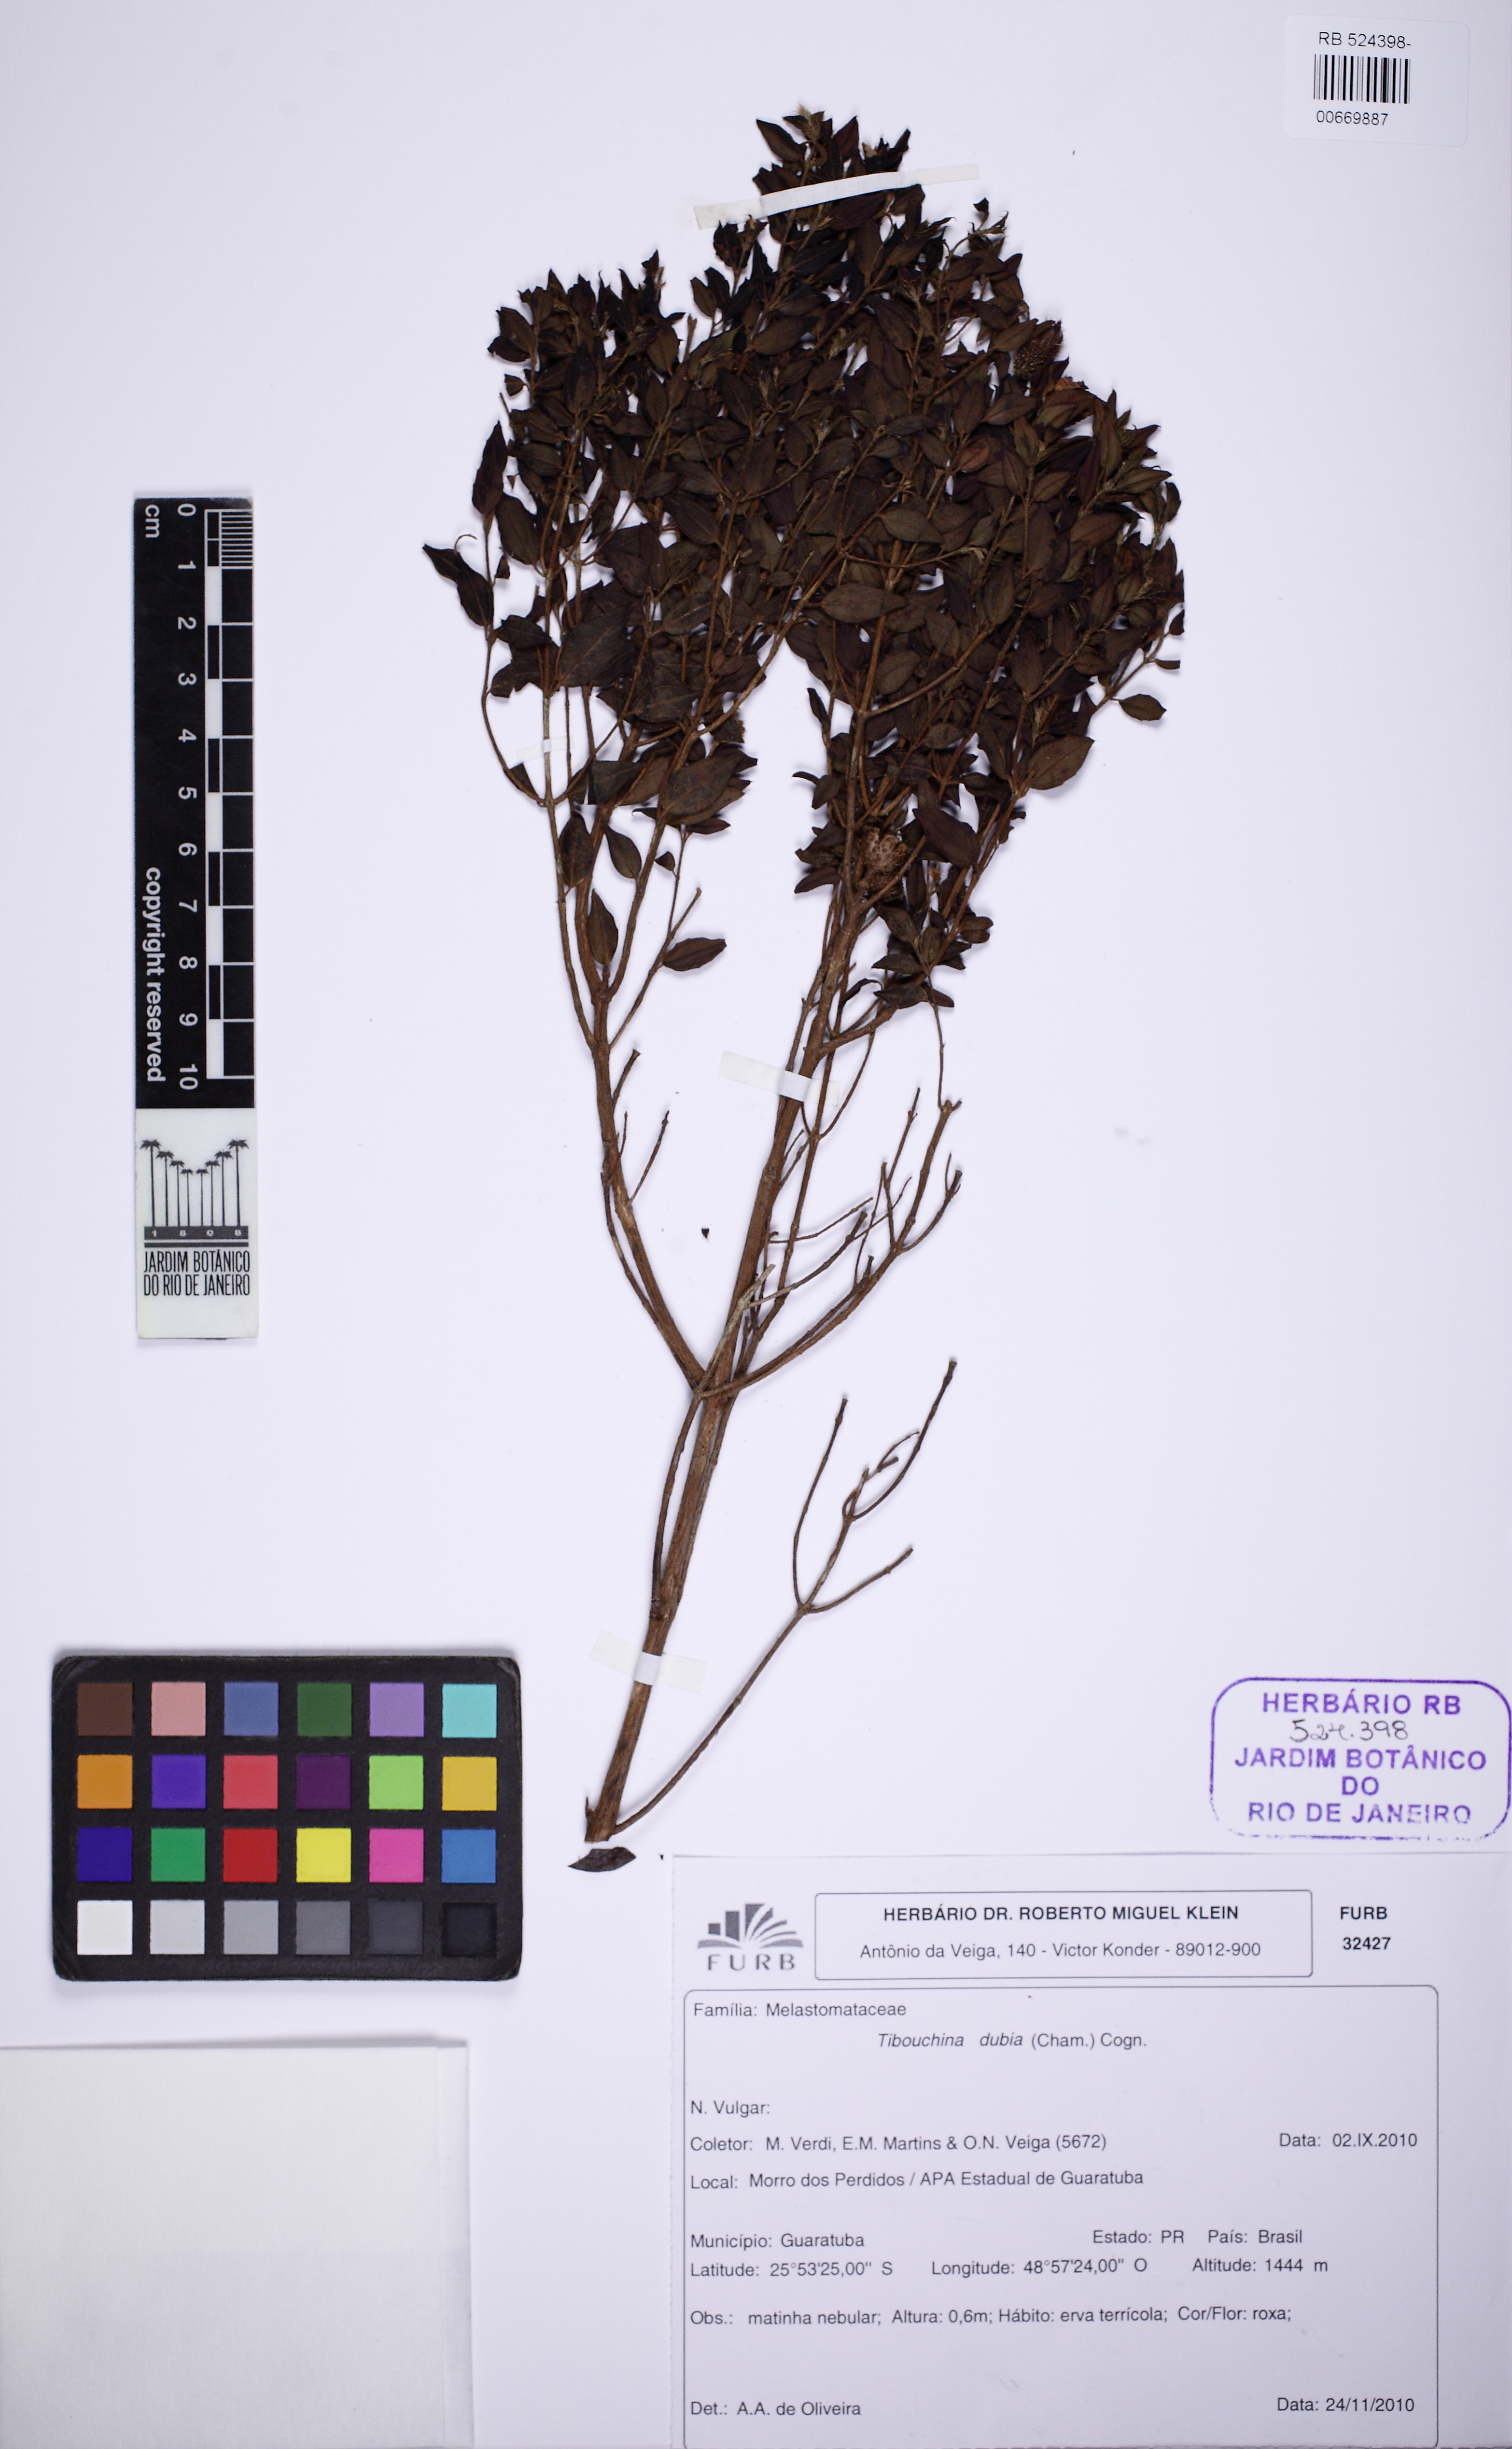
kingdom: Plantae
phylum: Tracheophyta
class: Magnoliopsida
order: Myrtales
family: Melastomataceae
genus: Pleroma
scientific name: Pleroma dubium
